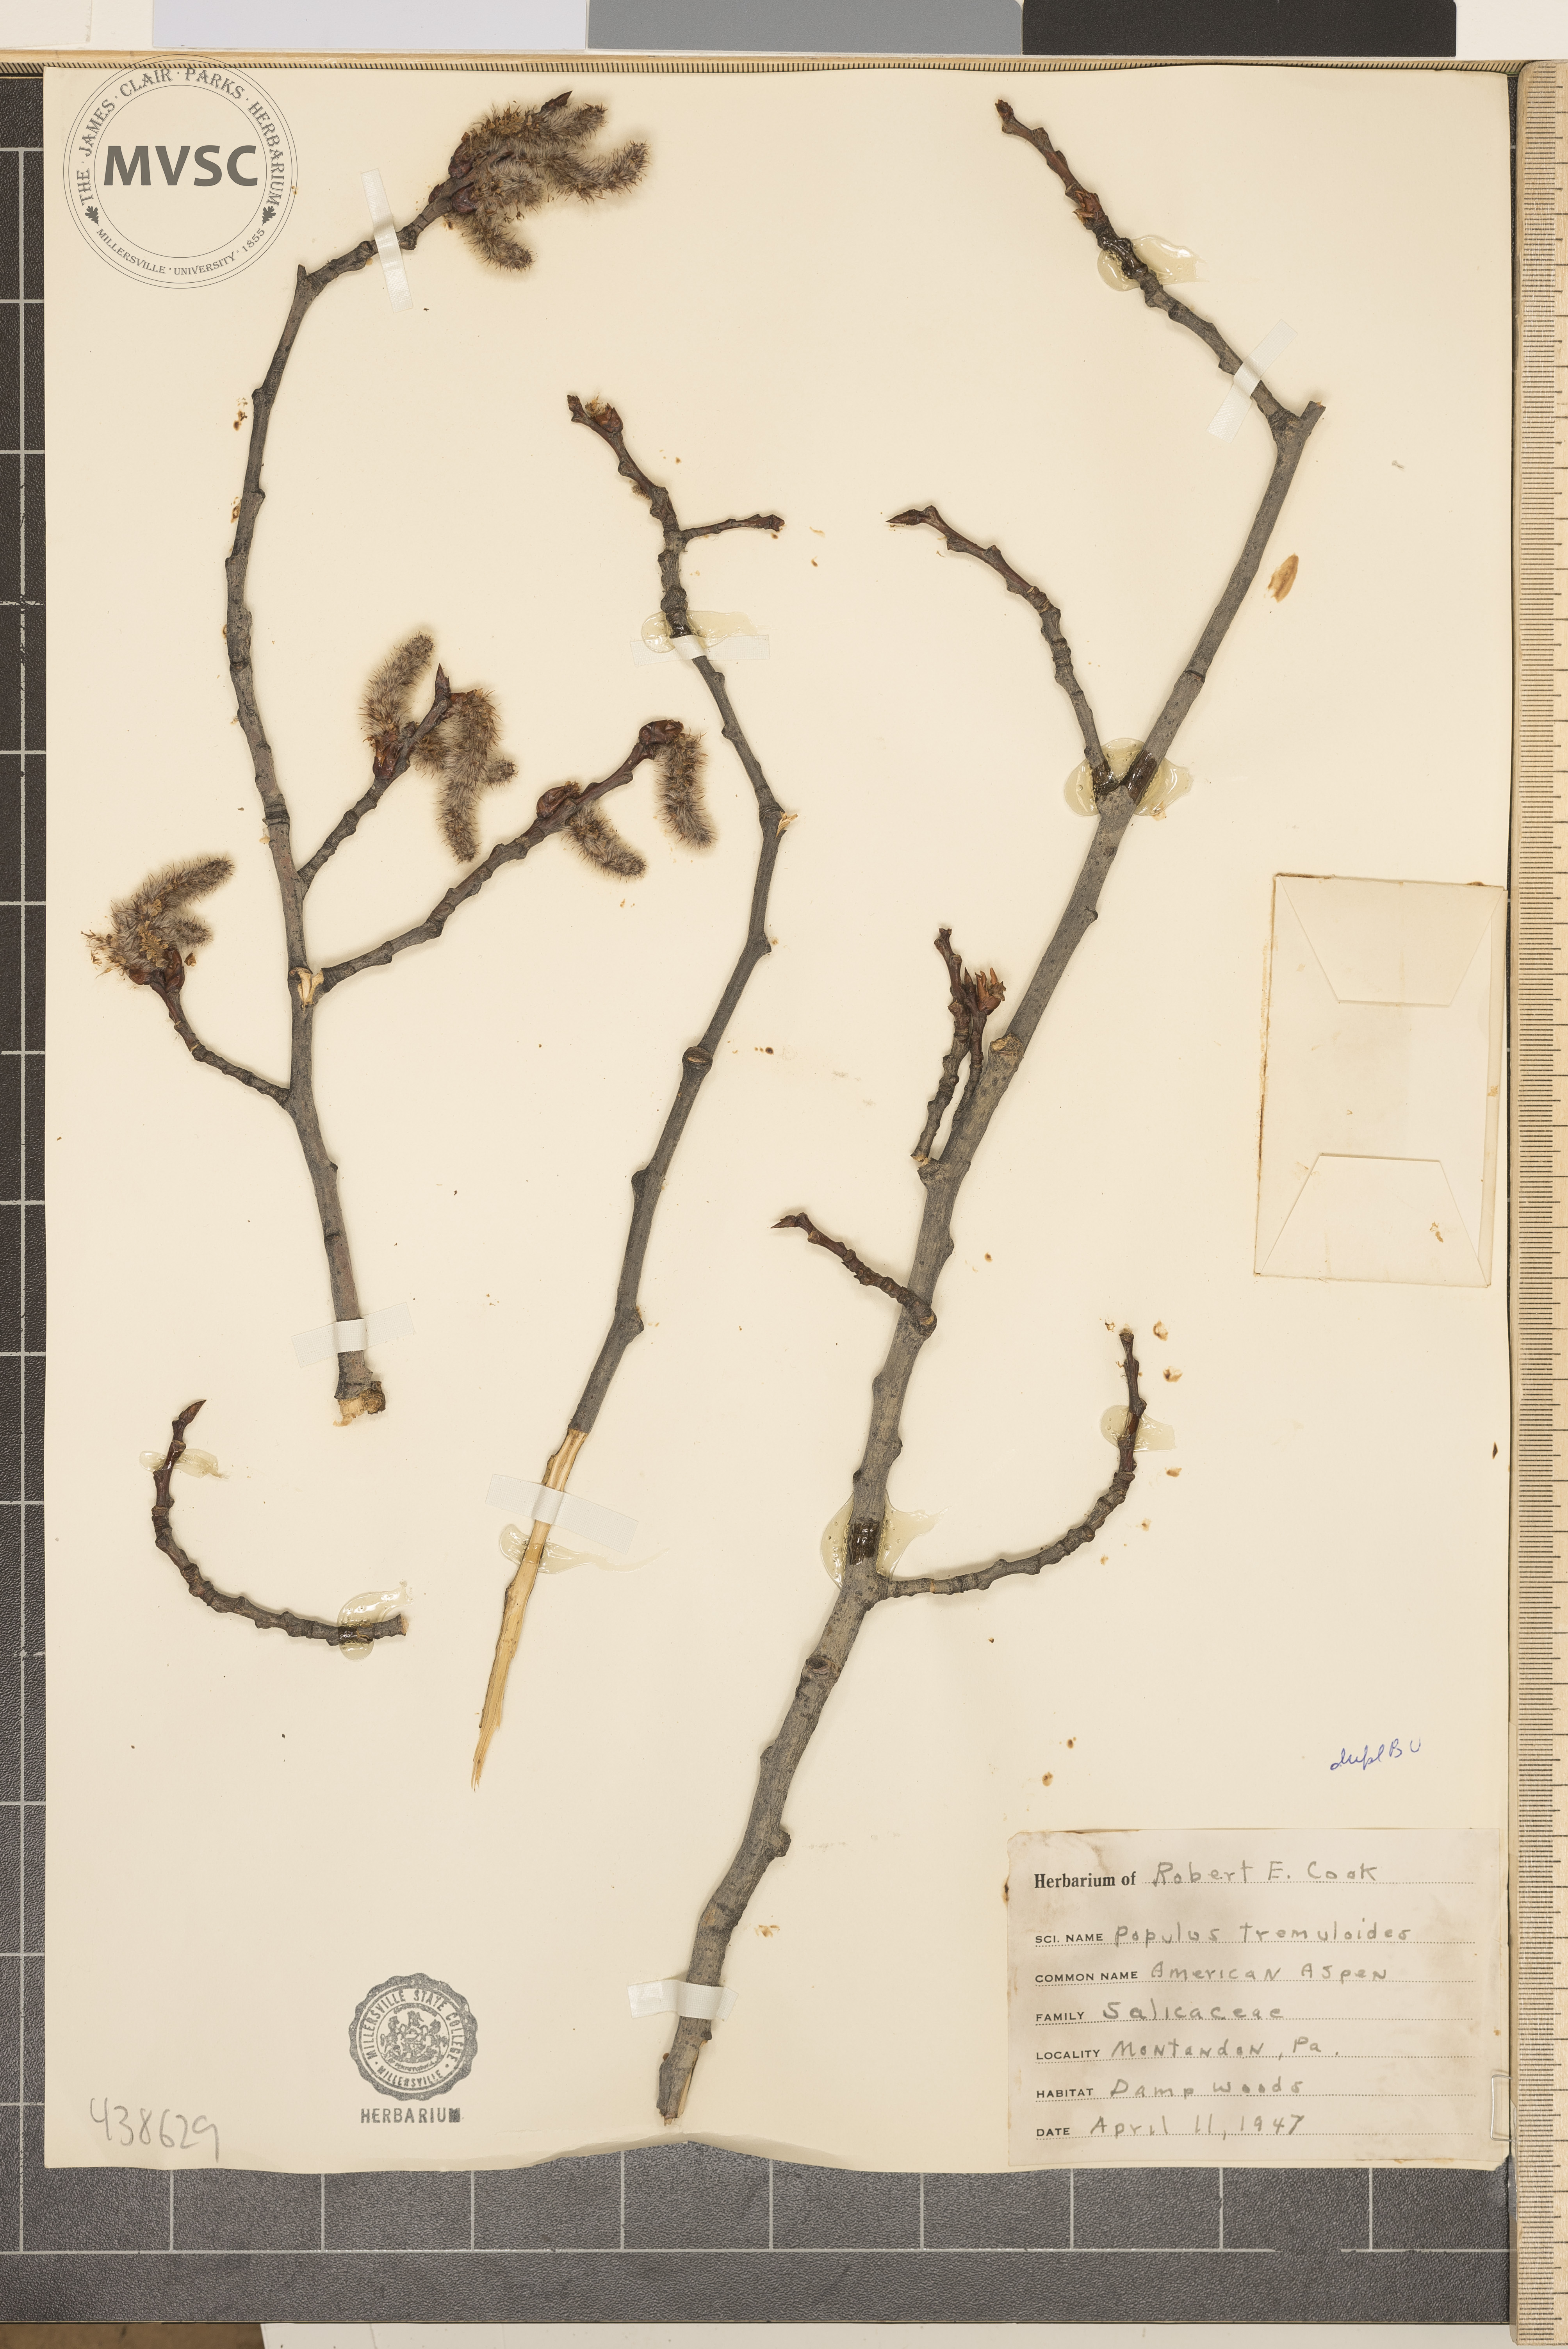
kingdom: Plantae
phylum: Tracheophyta
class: Magnoliopsida
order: Malpighiales
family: Salicaceae
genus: Populus
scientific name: Populus tremuloides
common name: Quaking aspen
